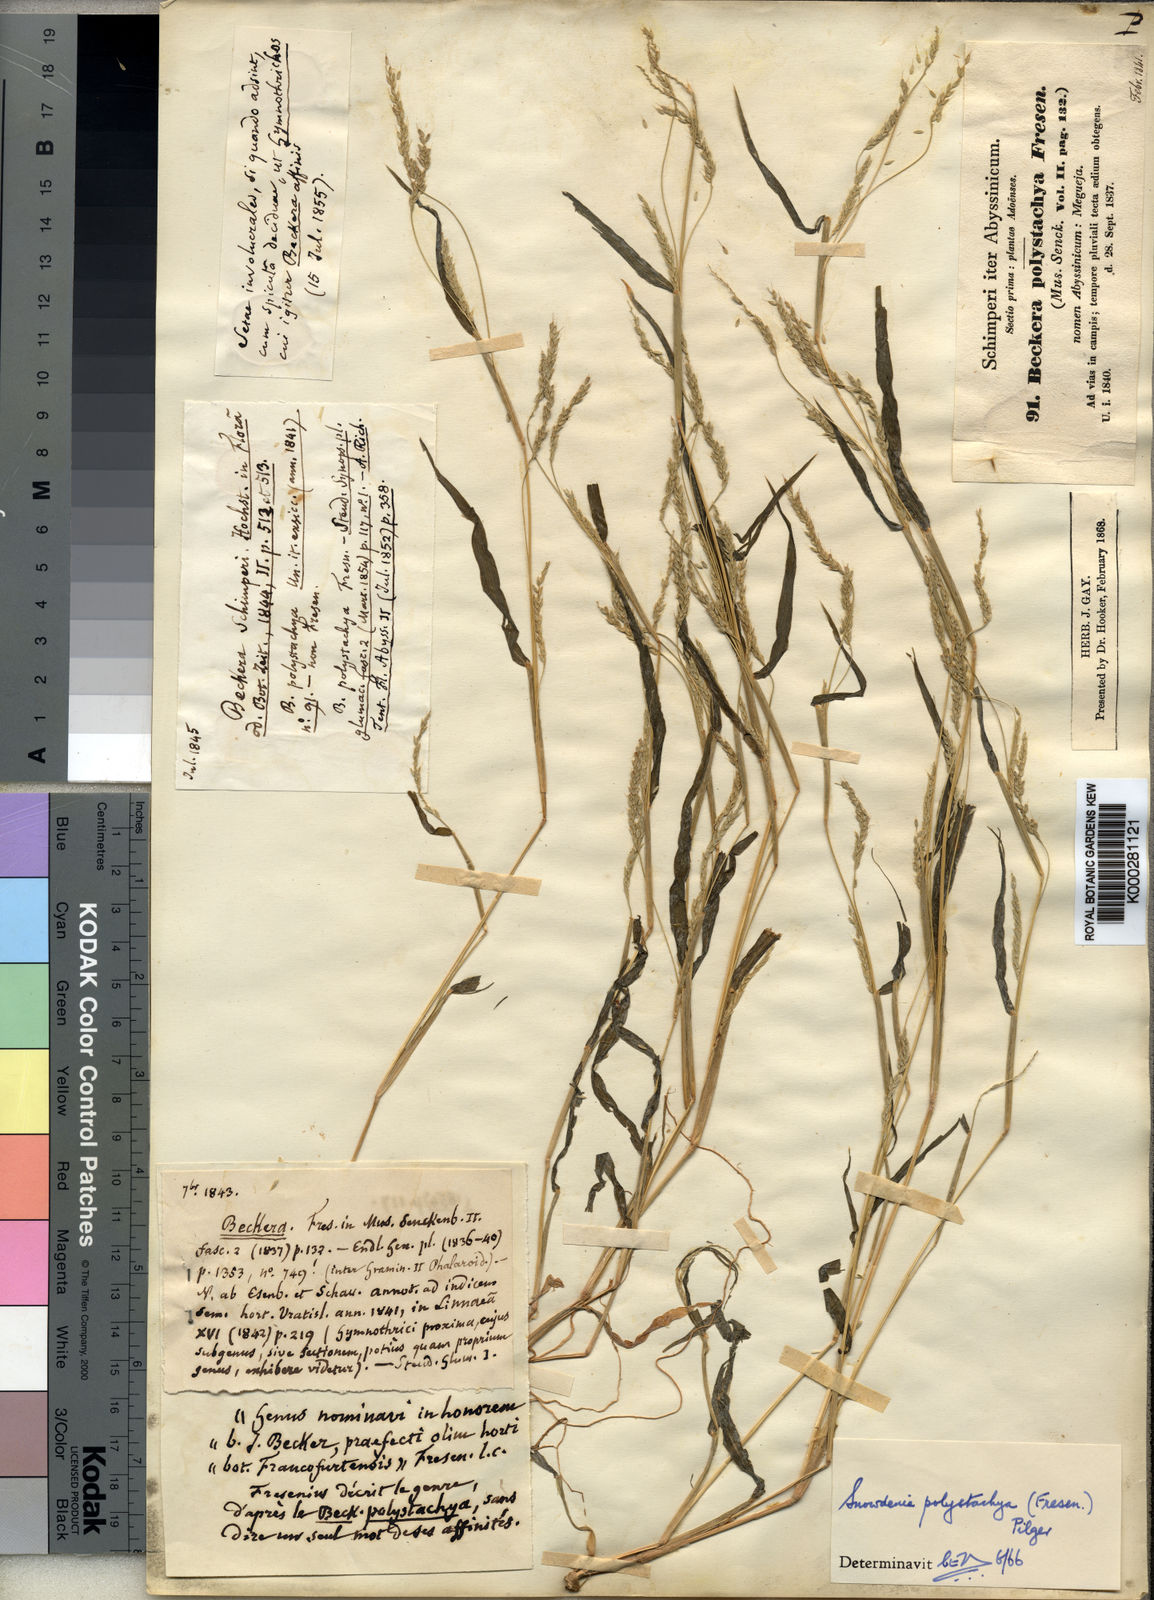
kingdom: Plantae
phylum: Tracheophyta
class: Liliopsida
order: Poales
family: Poaceae
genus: Snowdenia
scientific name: Snowdenia polystachya
